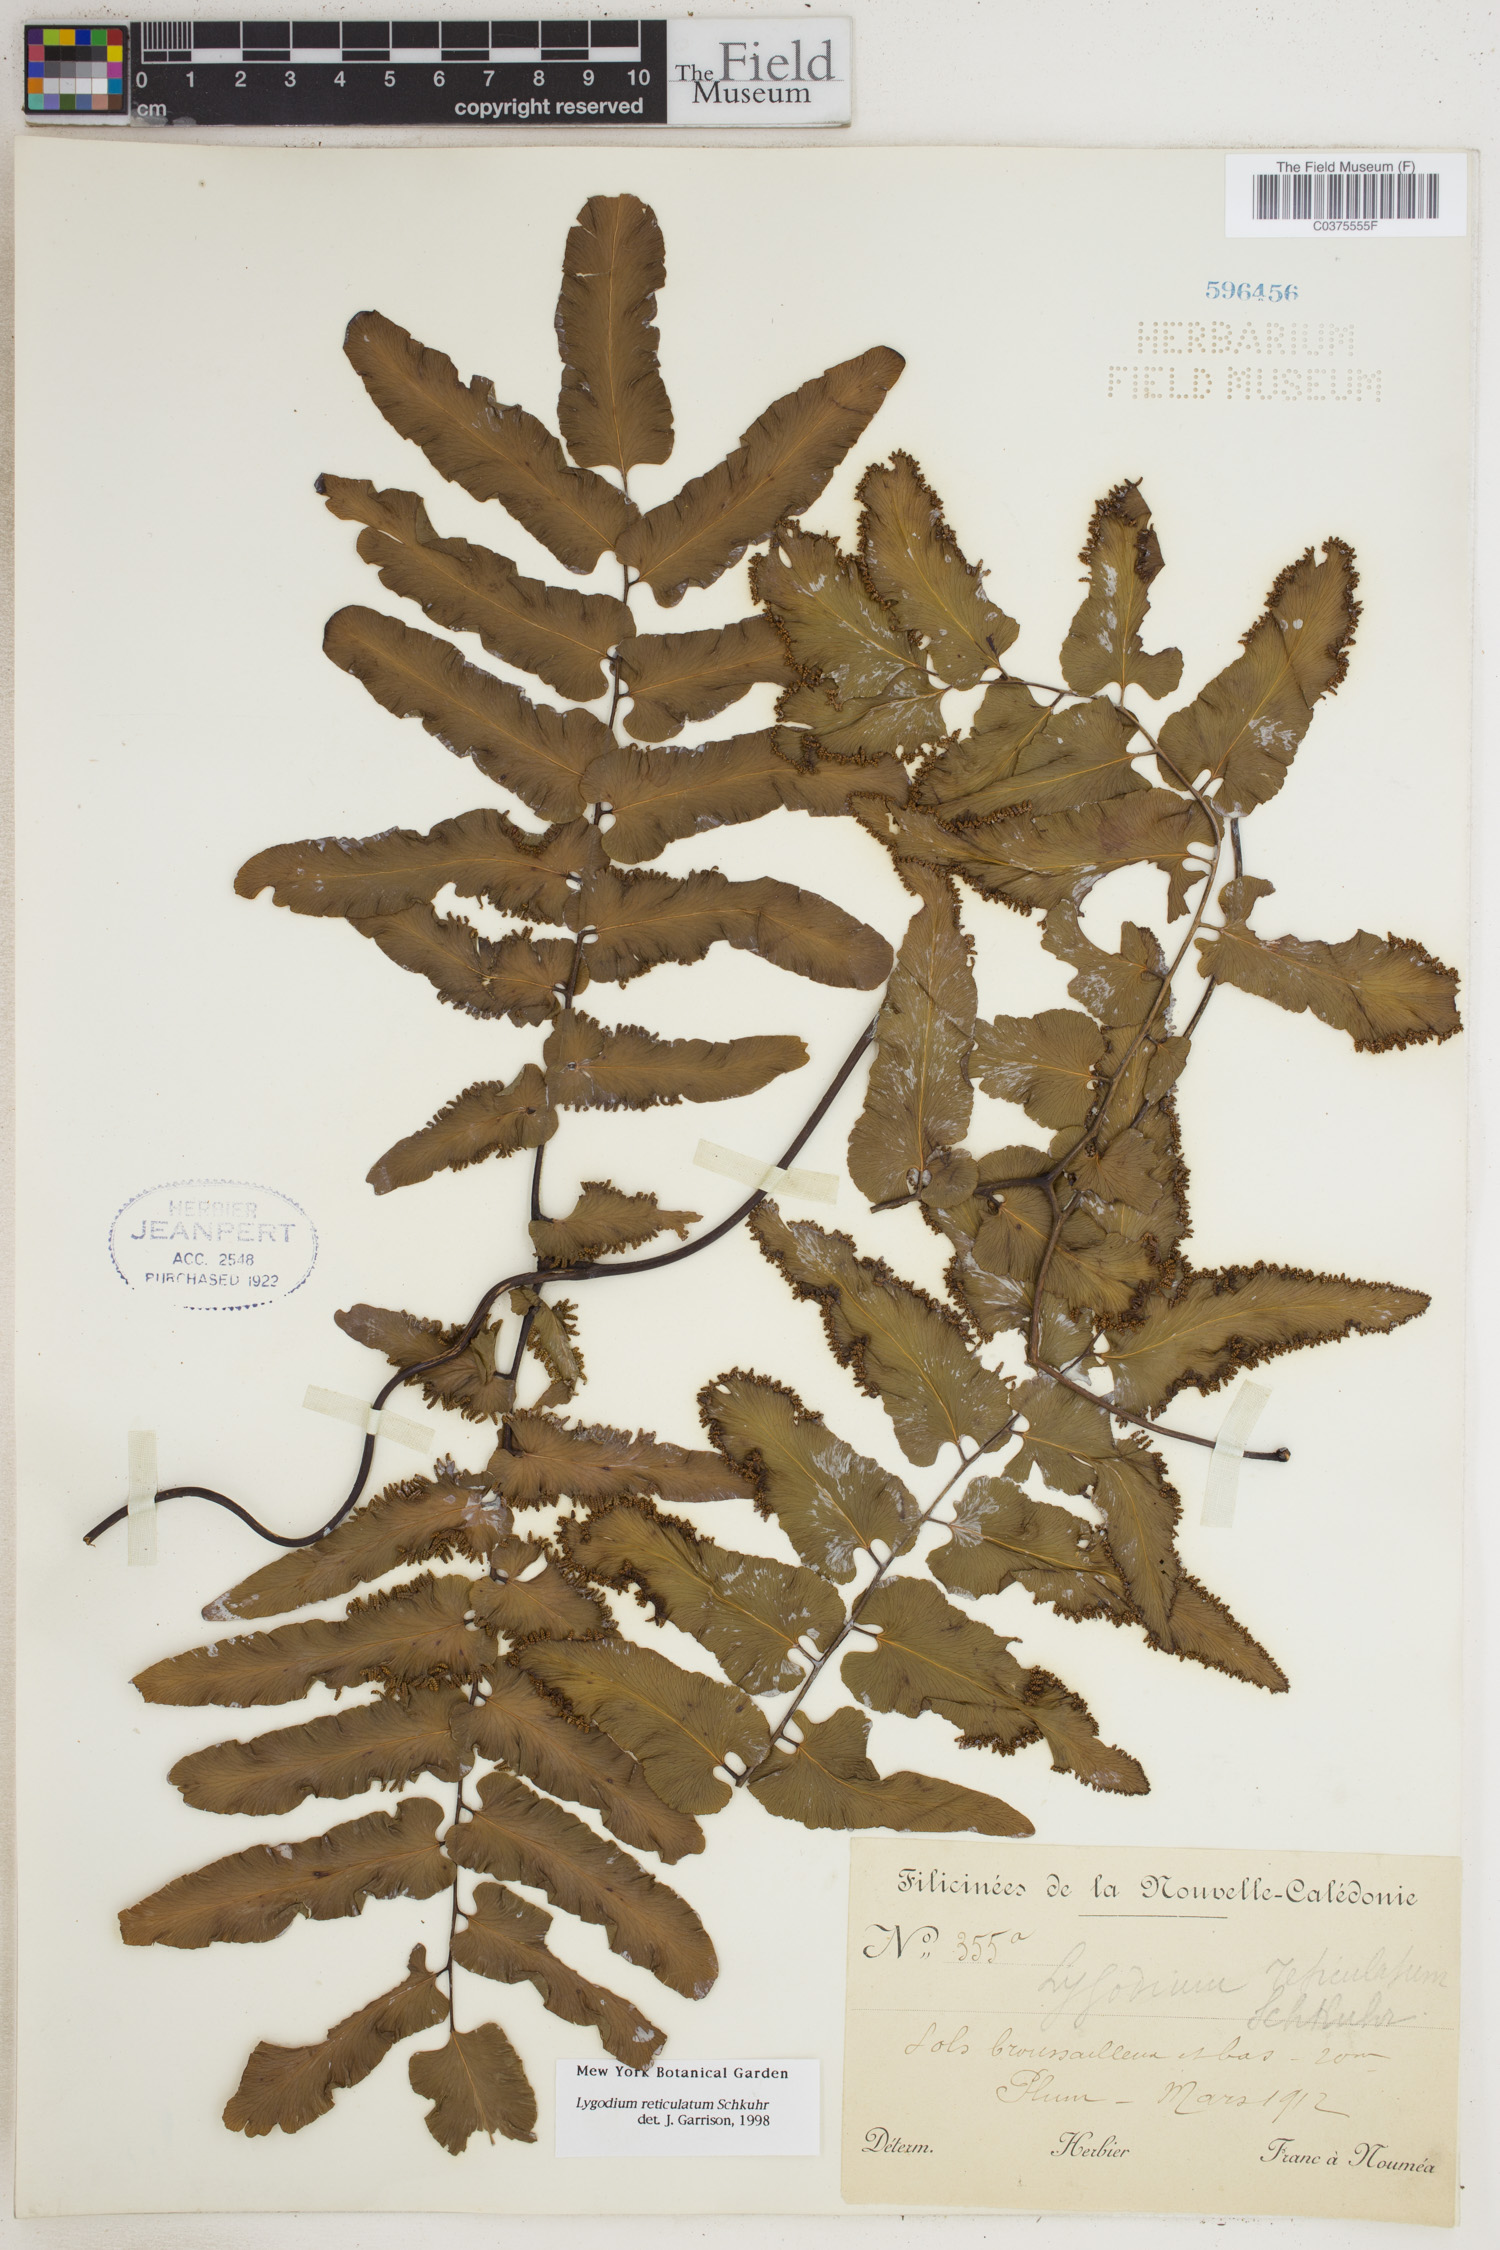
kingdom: Plantae
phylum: Tracheophyta
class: Polypodiopsida
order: Schizaeales
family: Lygodiaceae
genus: Lygodium
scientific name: Lygodium reticulatum
